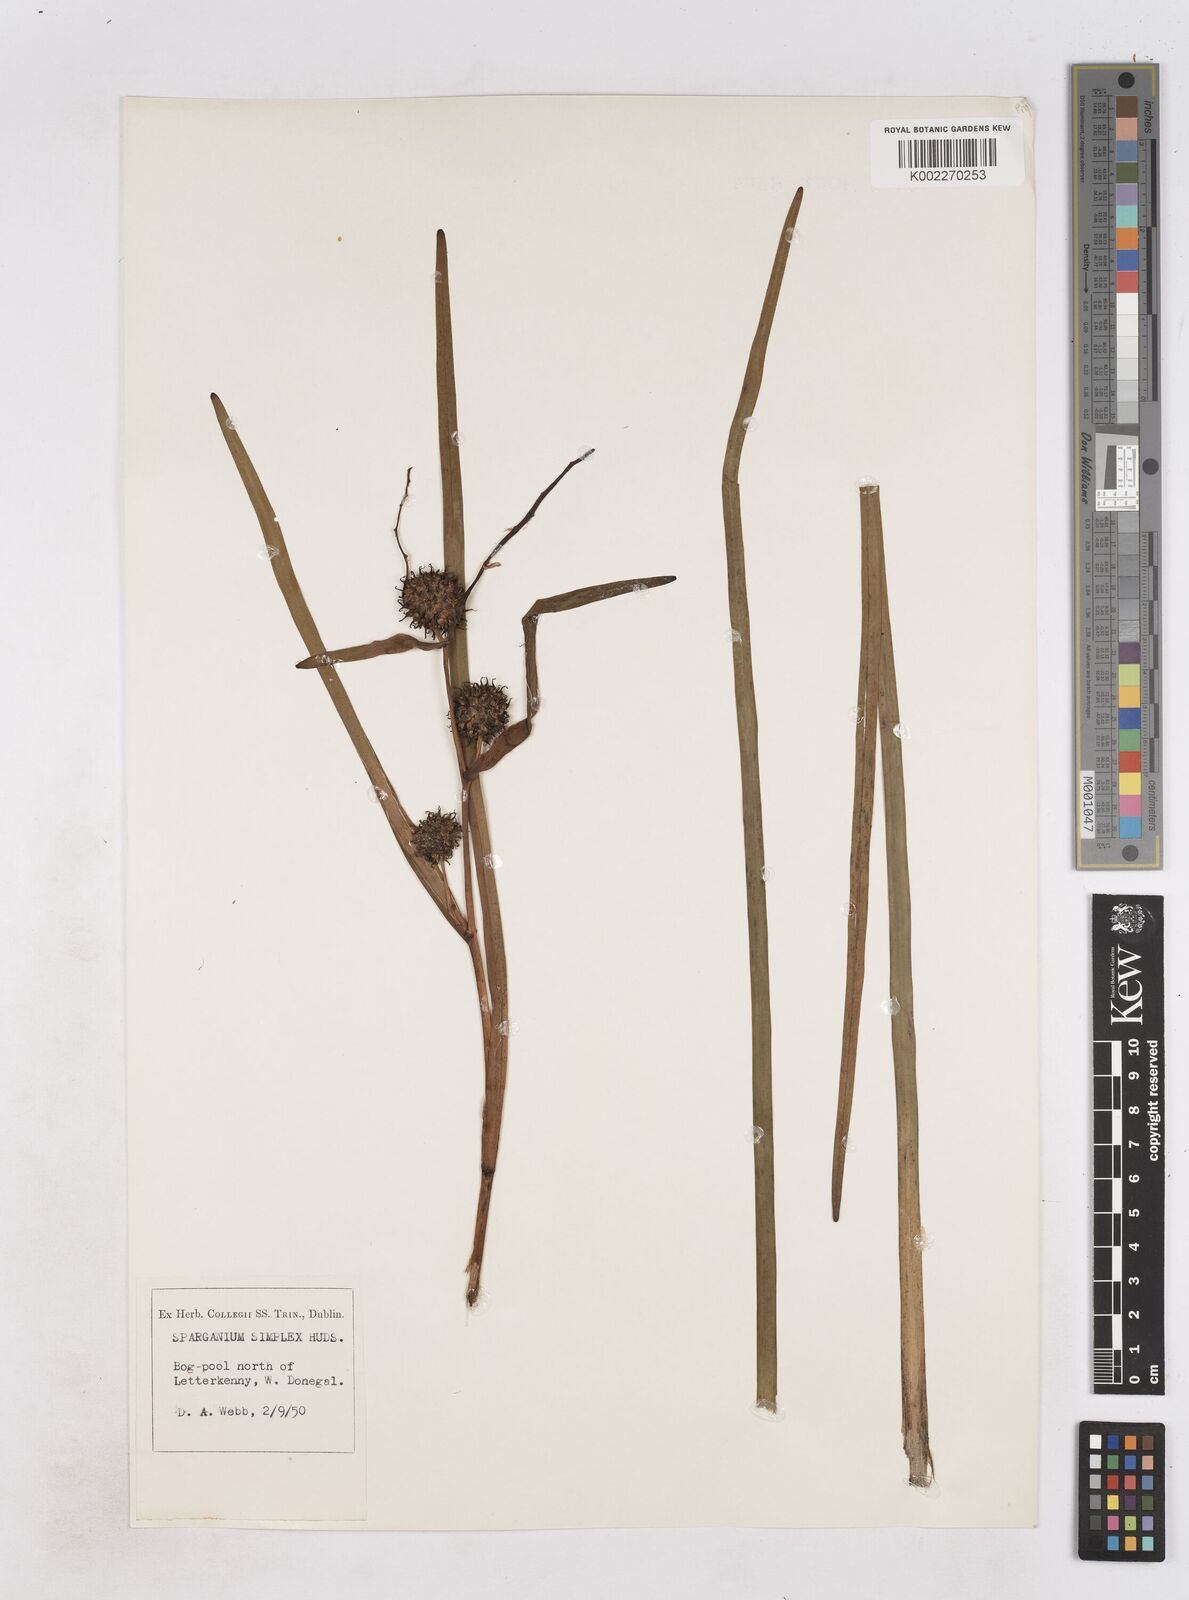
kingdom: Plantae
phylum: Tracheophyta
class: Liliopsida
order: Poales
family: Typhaceae
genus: Sparganium
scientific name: Sparganium emersum
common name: Unbranched bur-reed
